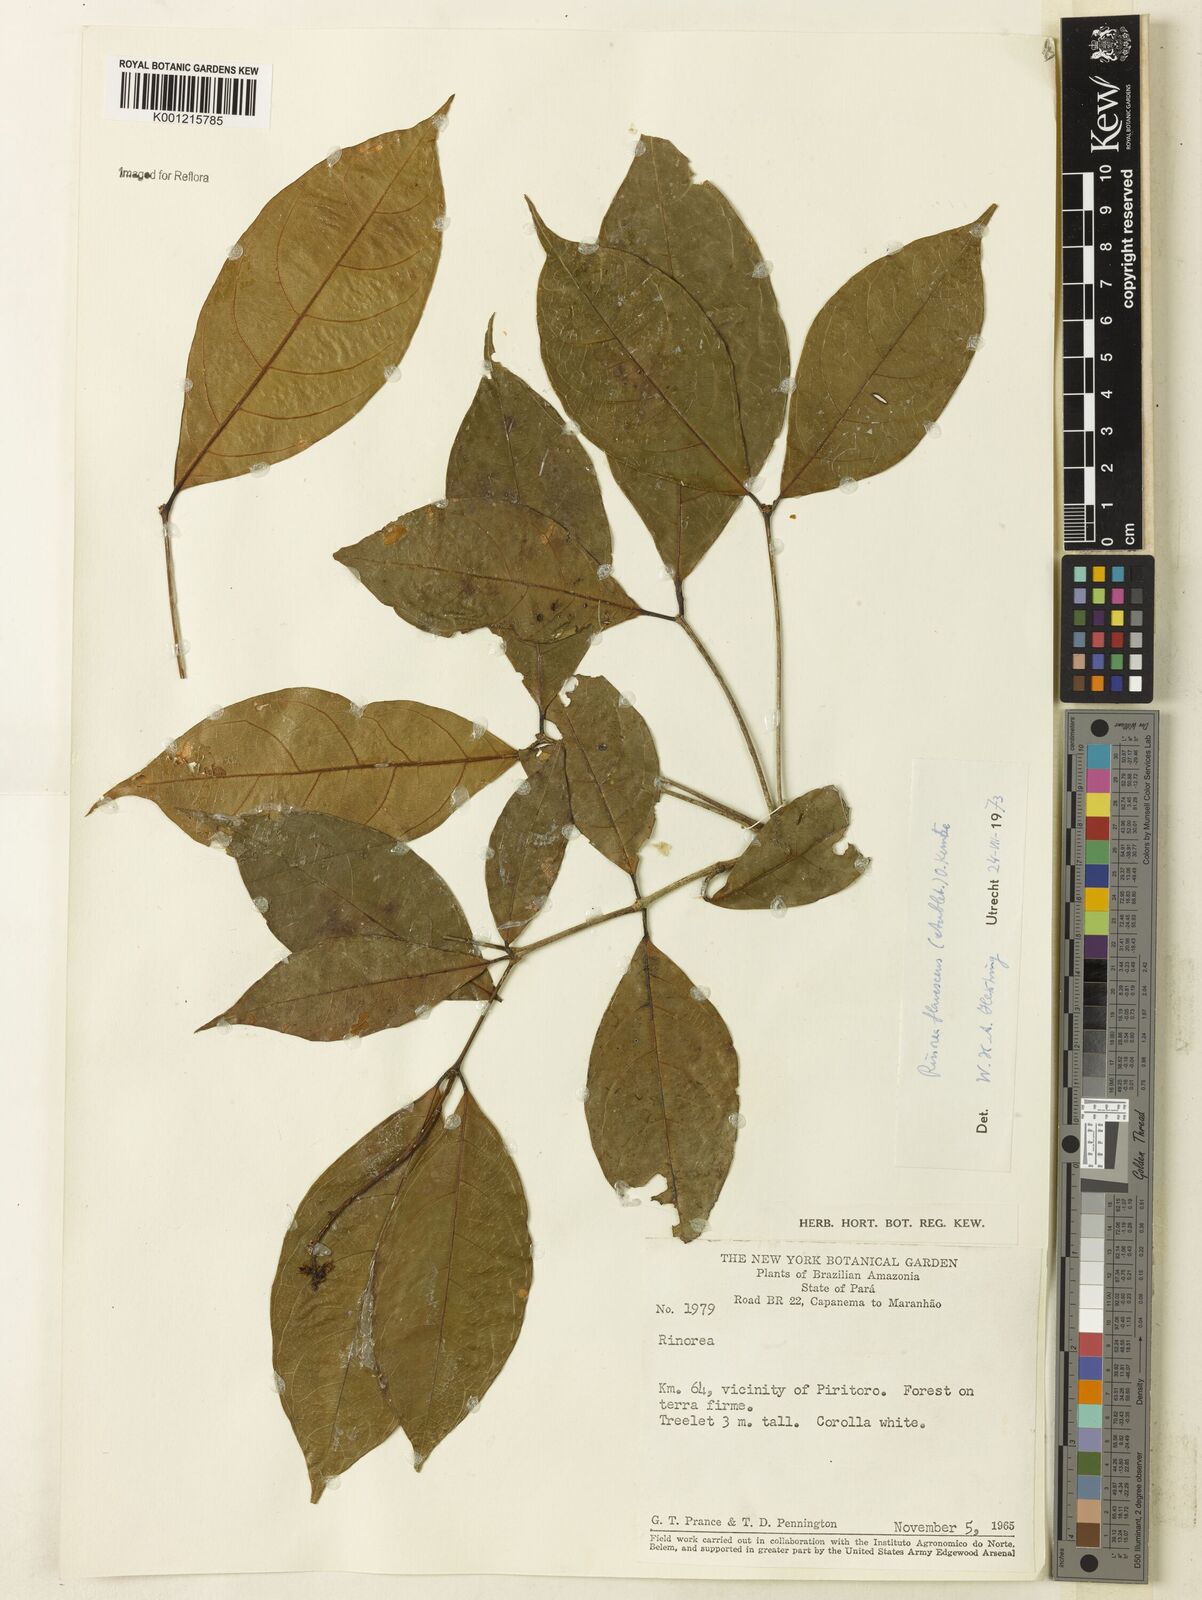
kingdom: Plantae
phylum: Tracheophyta
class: Magnoliopsida
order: Malpighiales
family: Violaceae
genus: Rinorea
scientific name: Rinorea flavescens
